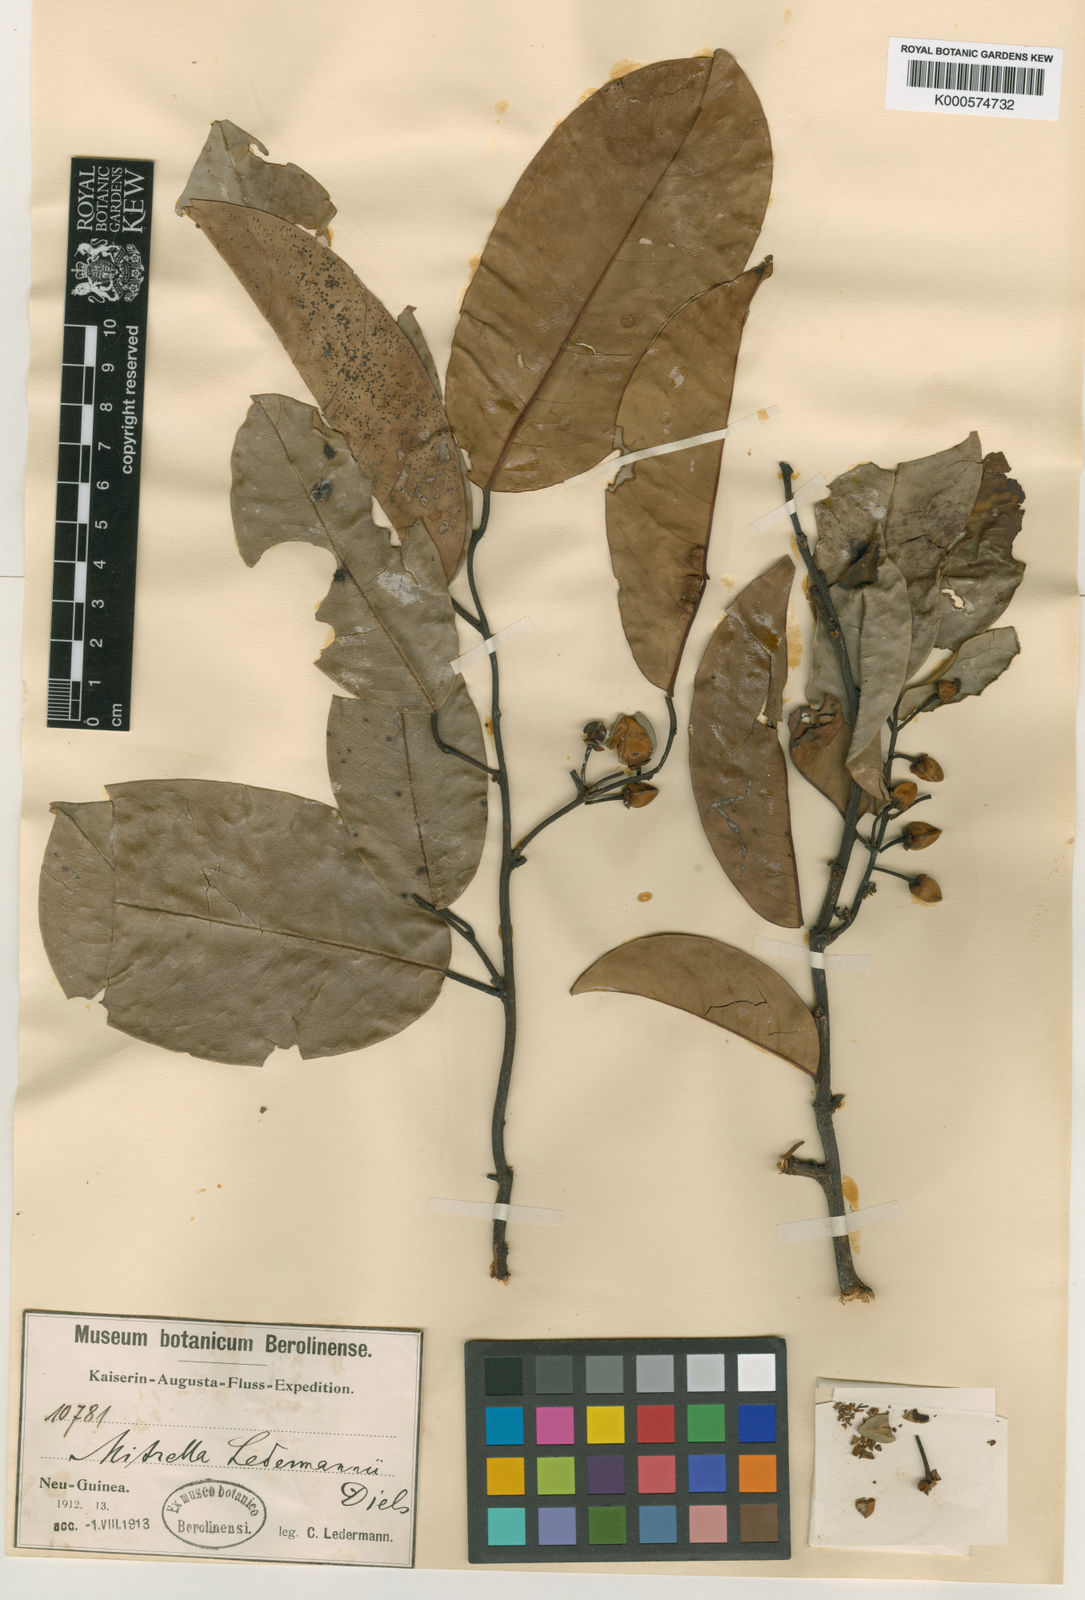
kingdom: Plantae
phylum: Tracheophyta
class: Magnoliopsida
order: Magnoliales
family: Annonaceae
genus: Mitrella
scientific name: Mitrella ledermannii
